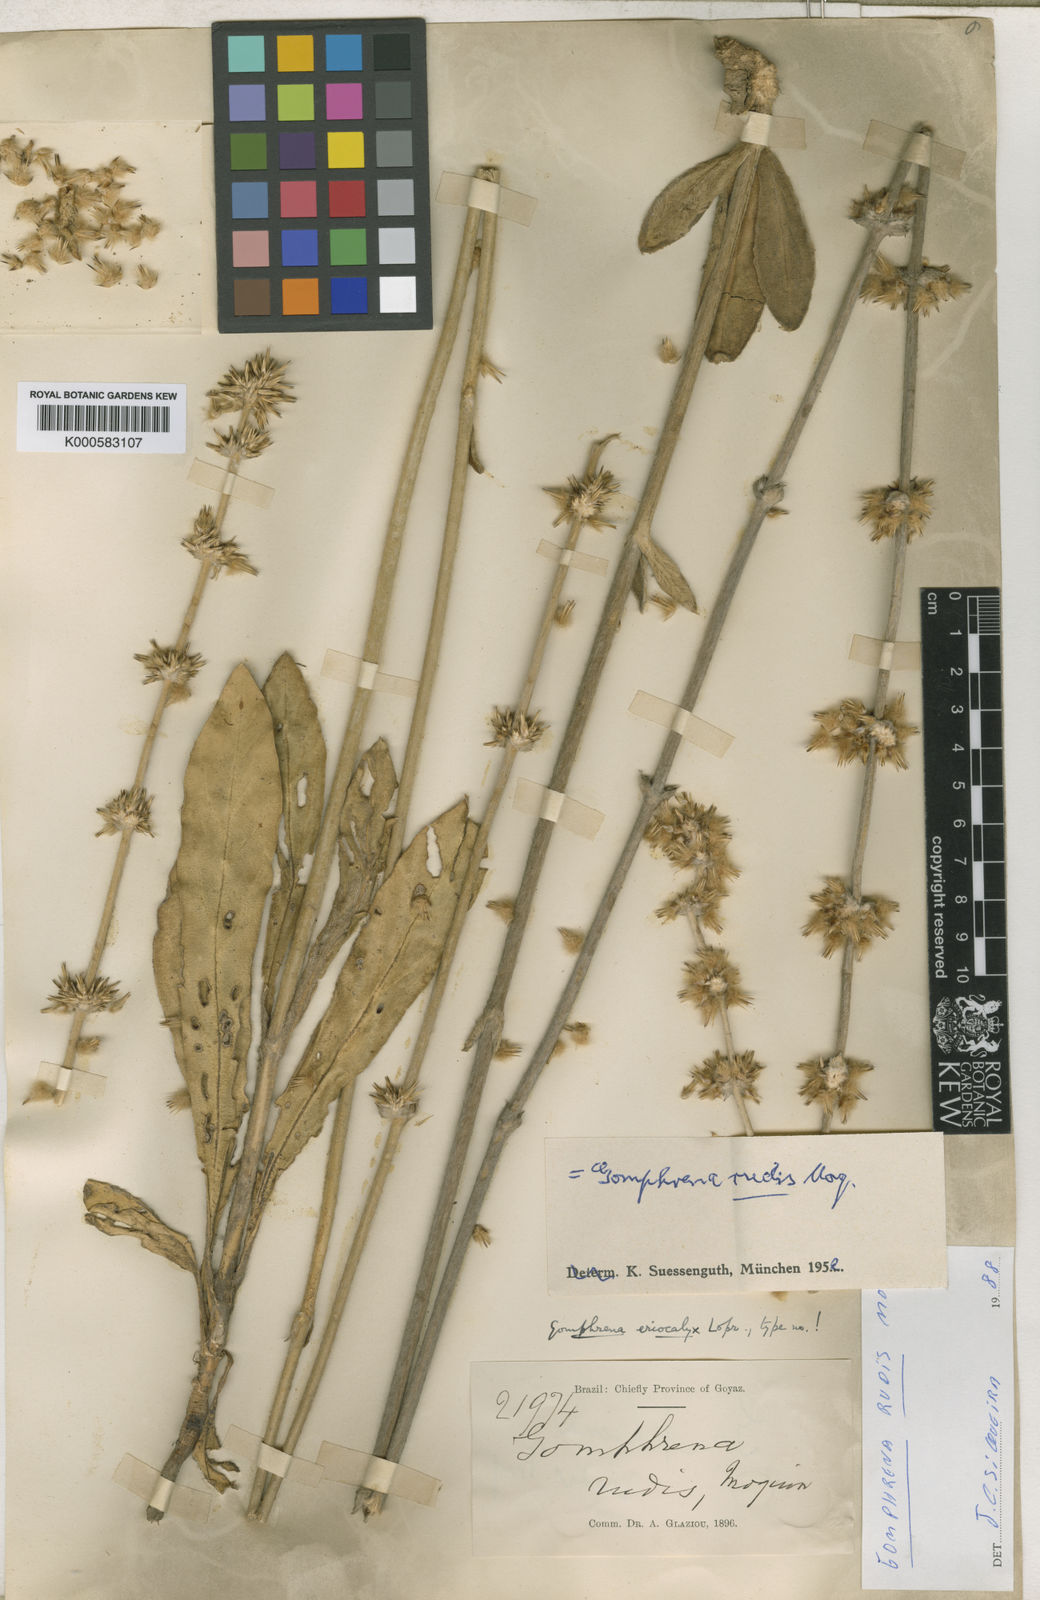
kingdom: Plantae
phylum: Tracheophyta
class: Magnoliopsida
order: Caryophyllales
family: Amaranthaceae
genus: Gomphrena
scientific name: Gomphrena rudis
